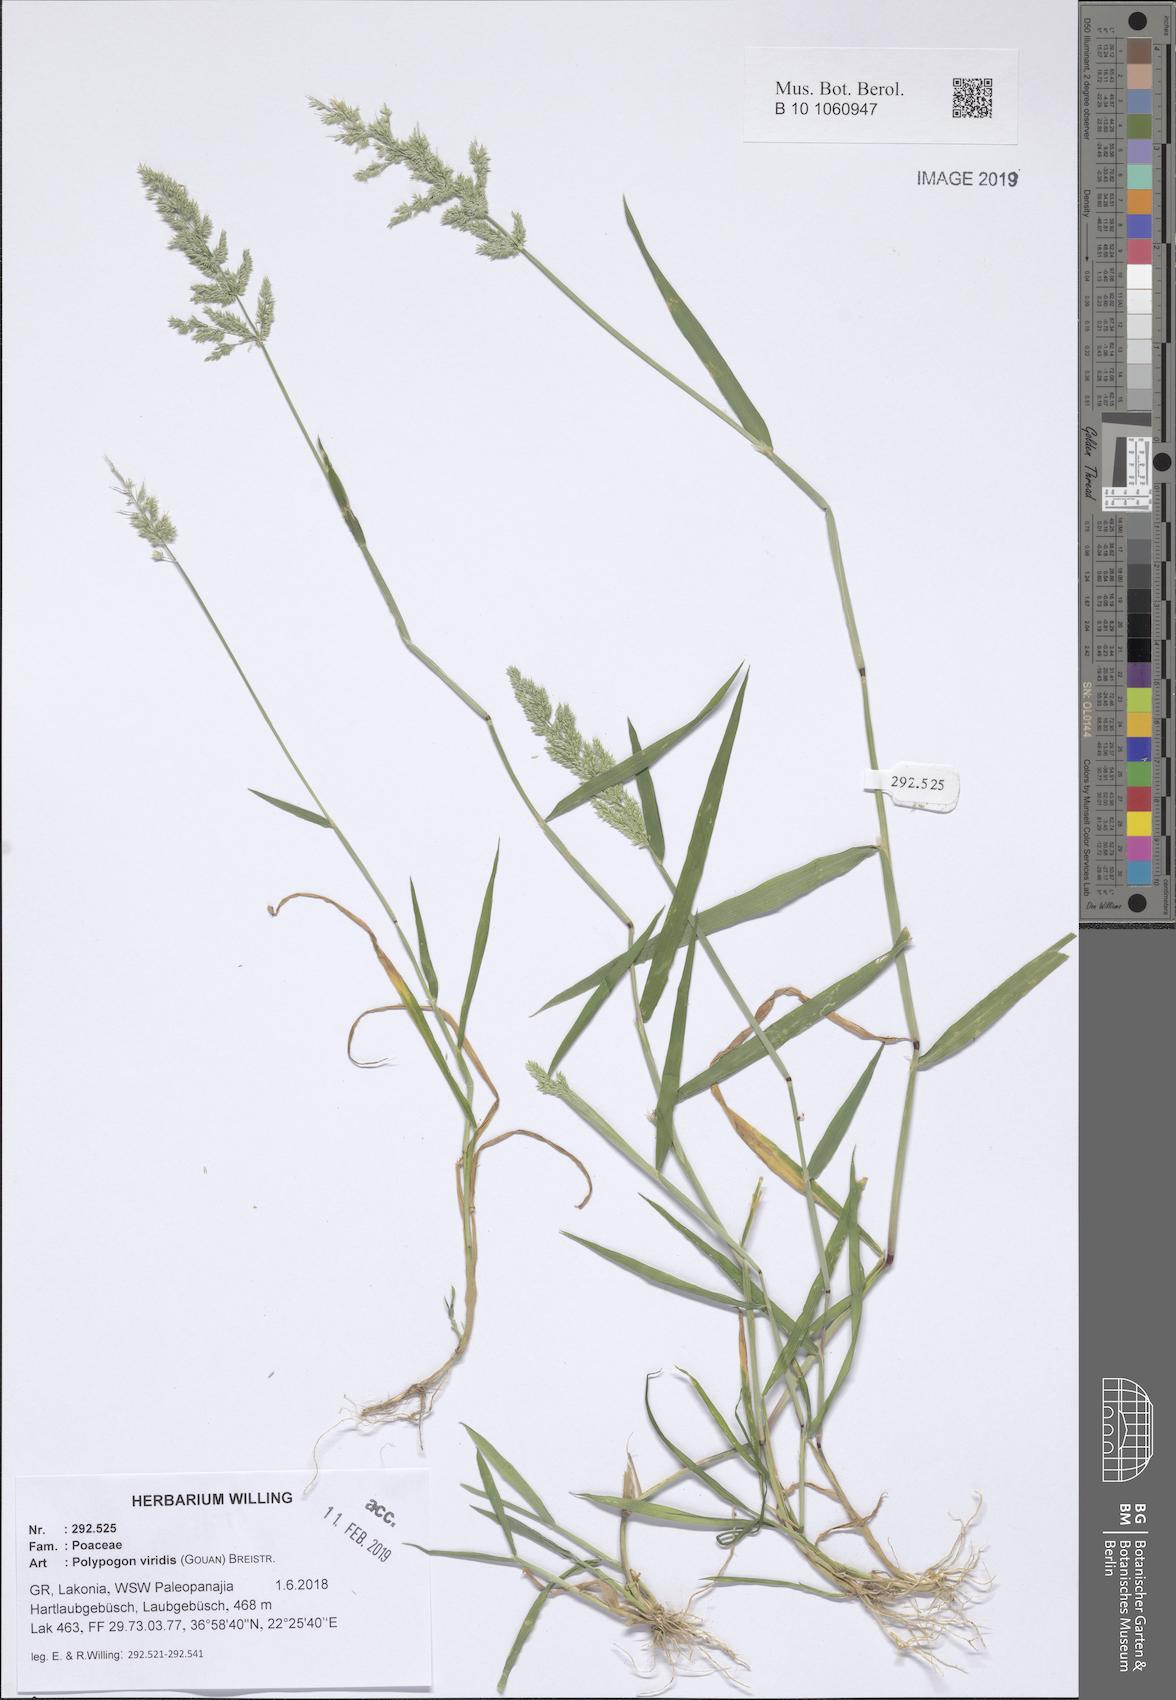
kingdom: Plantae
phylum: Tracheophyta
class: Liliopsida
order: Poales
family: Poaceae
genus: Polypogon
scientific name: Polypogon viridis
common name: Water bent
